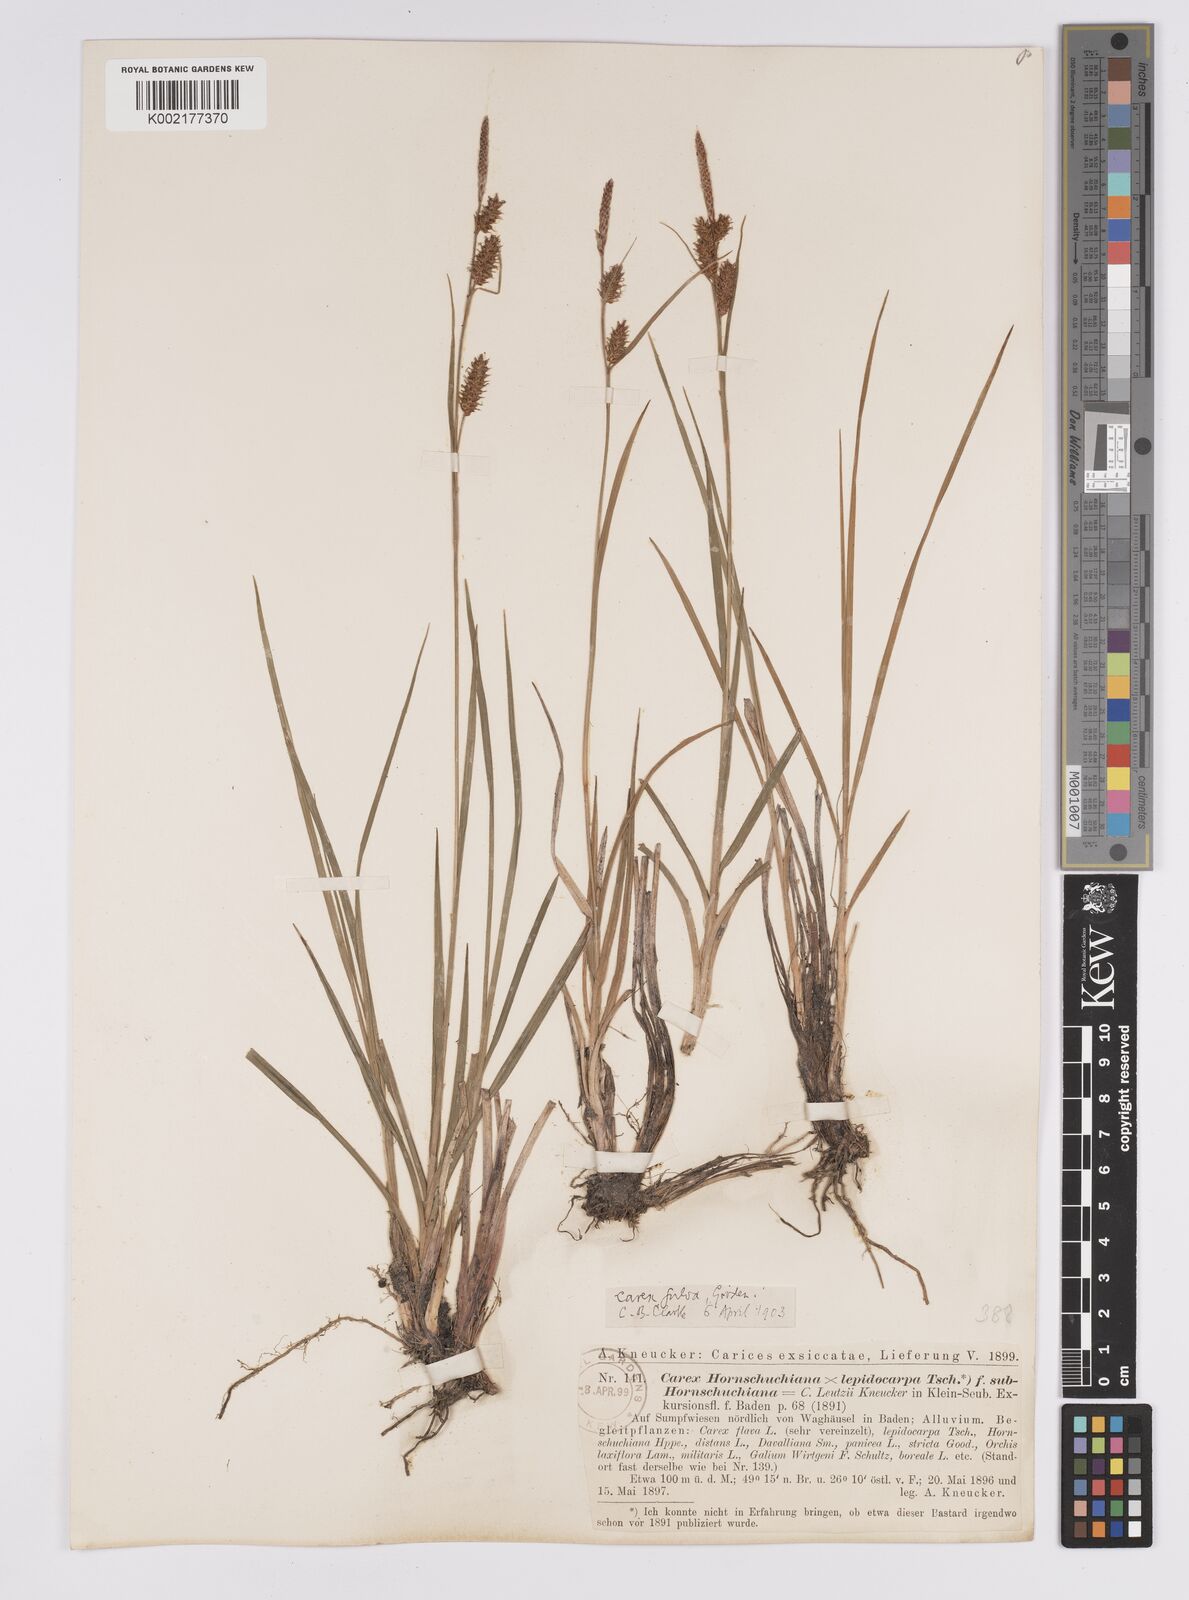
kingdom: Plantae
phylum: Tracheophyta
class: Liliopsida
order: Poales
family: Cyperaceae
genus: Carex
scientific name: Carex hostiana
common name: Tawny sedge
